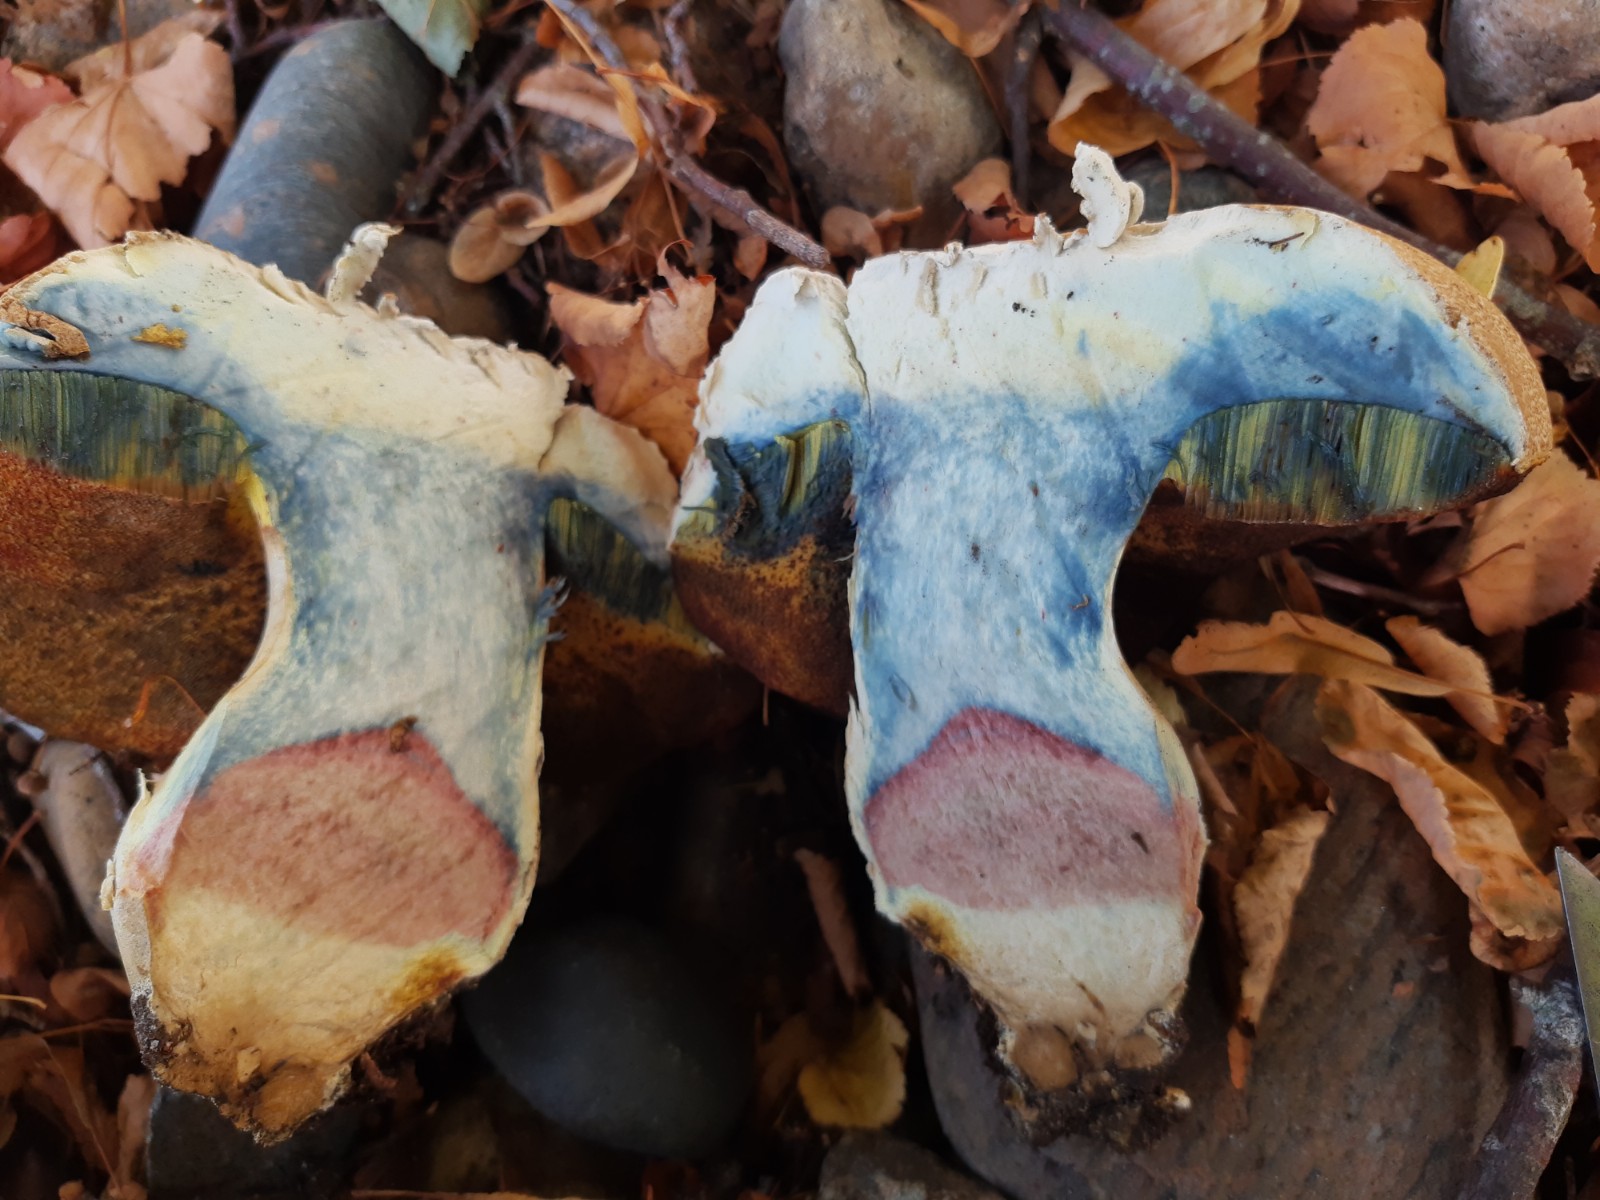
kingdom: Fungi
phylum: Basidiomycota
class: Agaricomycetes
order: Boletales
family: Boletaceae
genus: Caloboletus
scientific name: Caloboletus radicans
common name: rod-rørhat
